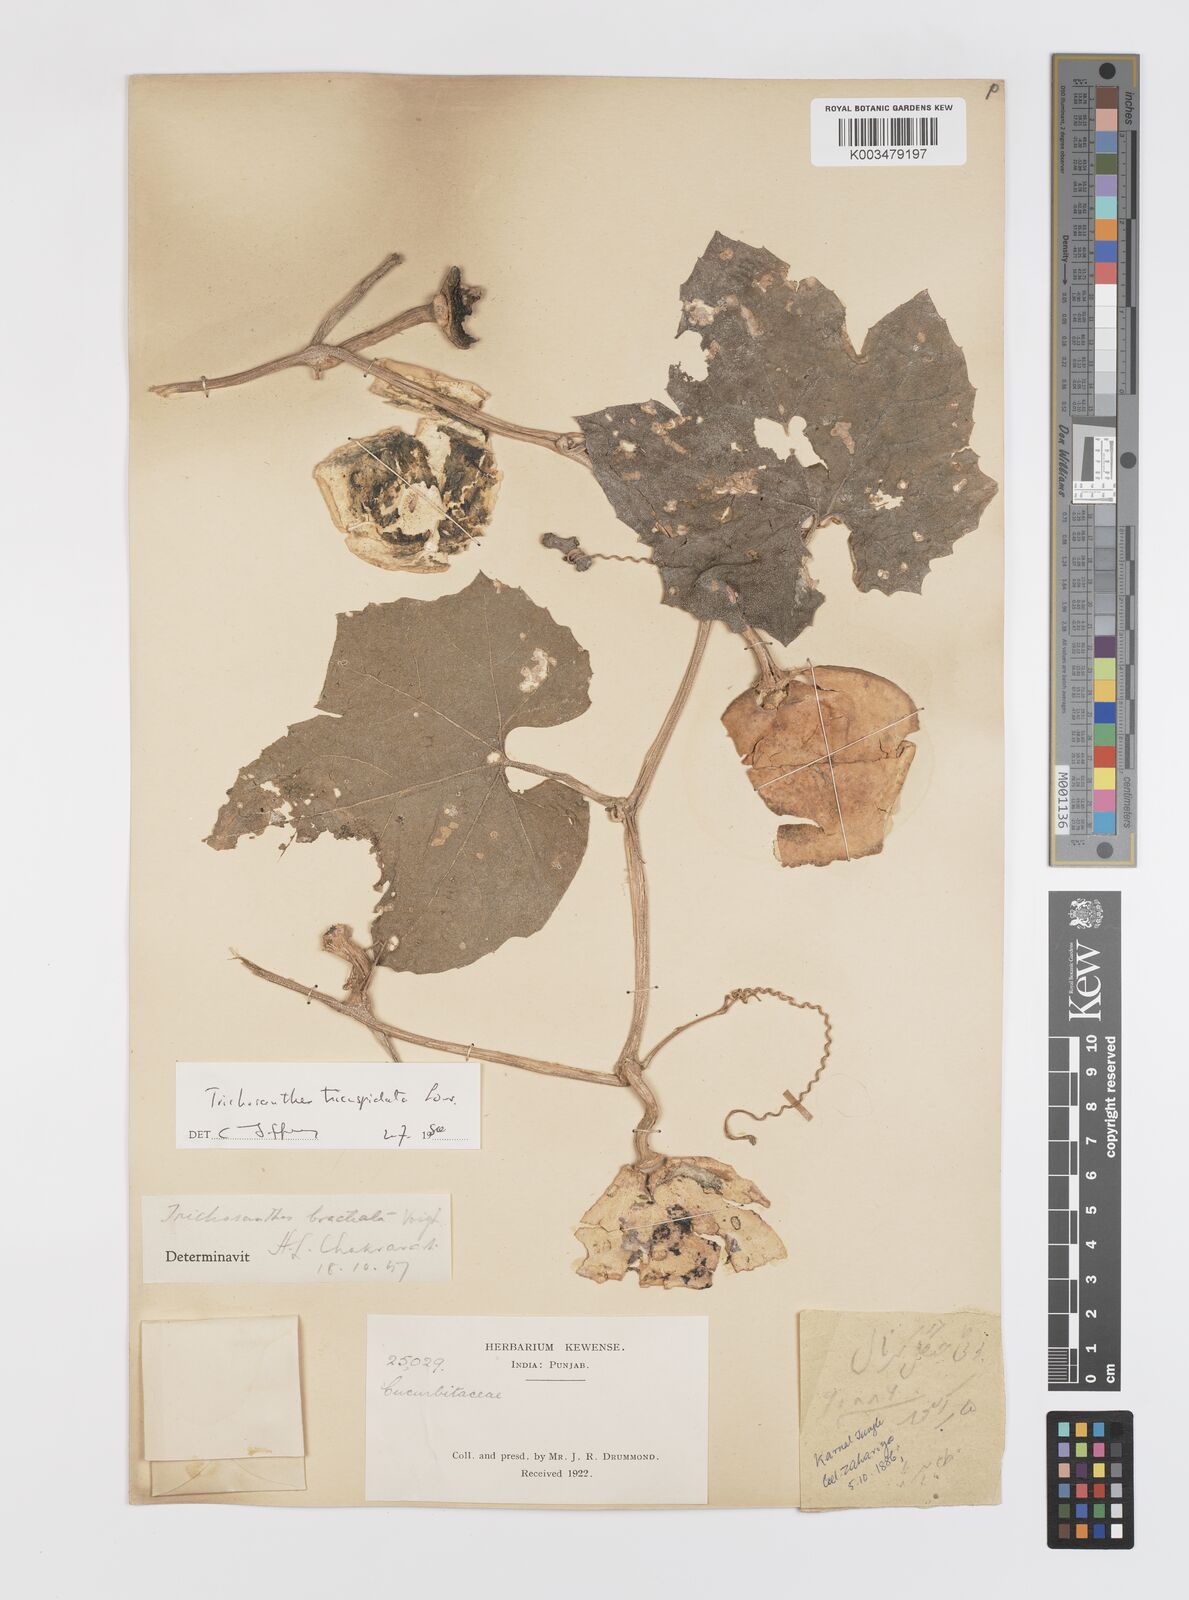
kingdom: Plantae
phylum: Tracheophyta
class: Magnoliopsida
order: Cucurbitales
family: Cucurbitaceae
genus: Trichosanthes
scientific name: Trichosanthes tricuspidata
